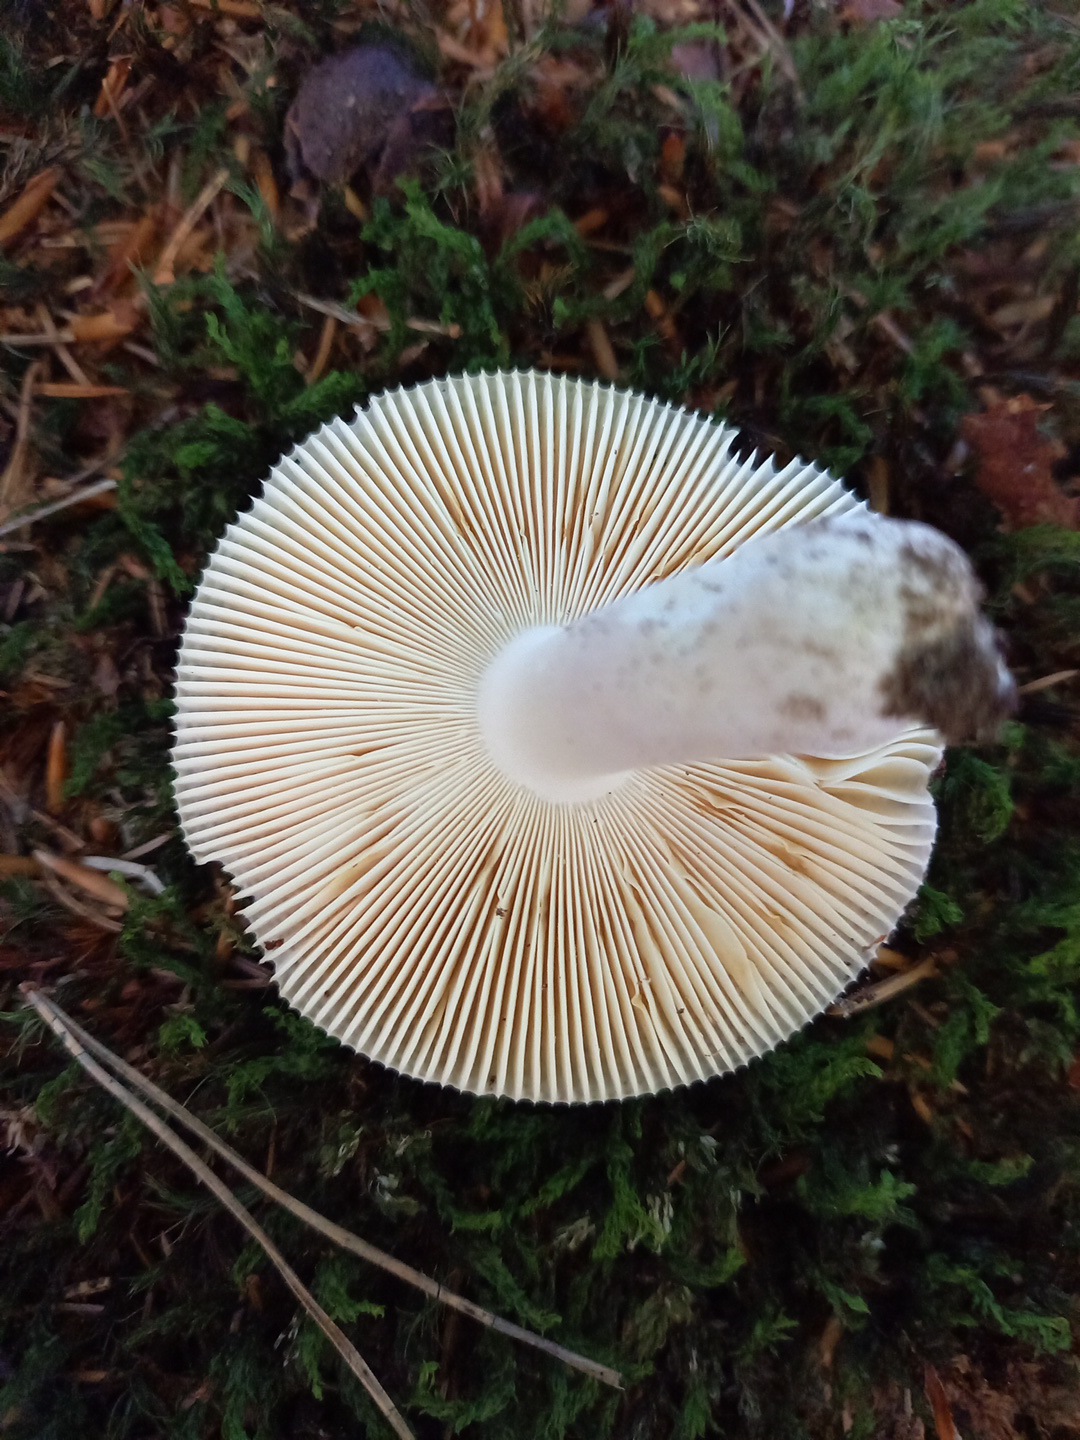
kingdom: Fungi
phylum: Basidiomycota
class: Agaricomycetes
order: Russulales
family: Russulaceae
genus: Russula
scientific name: Russula ionochlora
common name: violetgrøn skørhat
